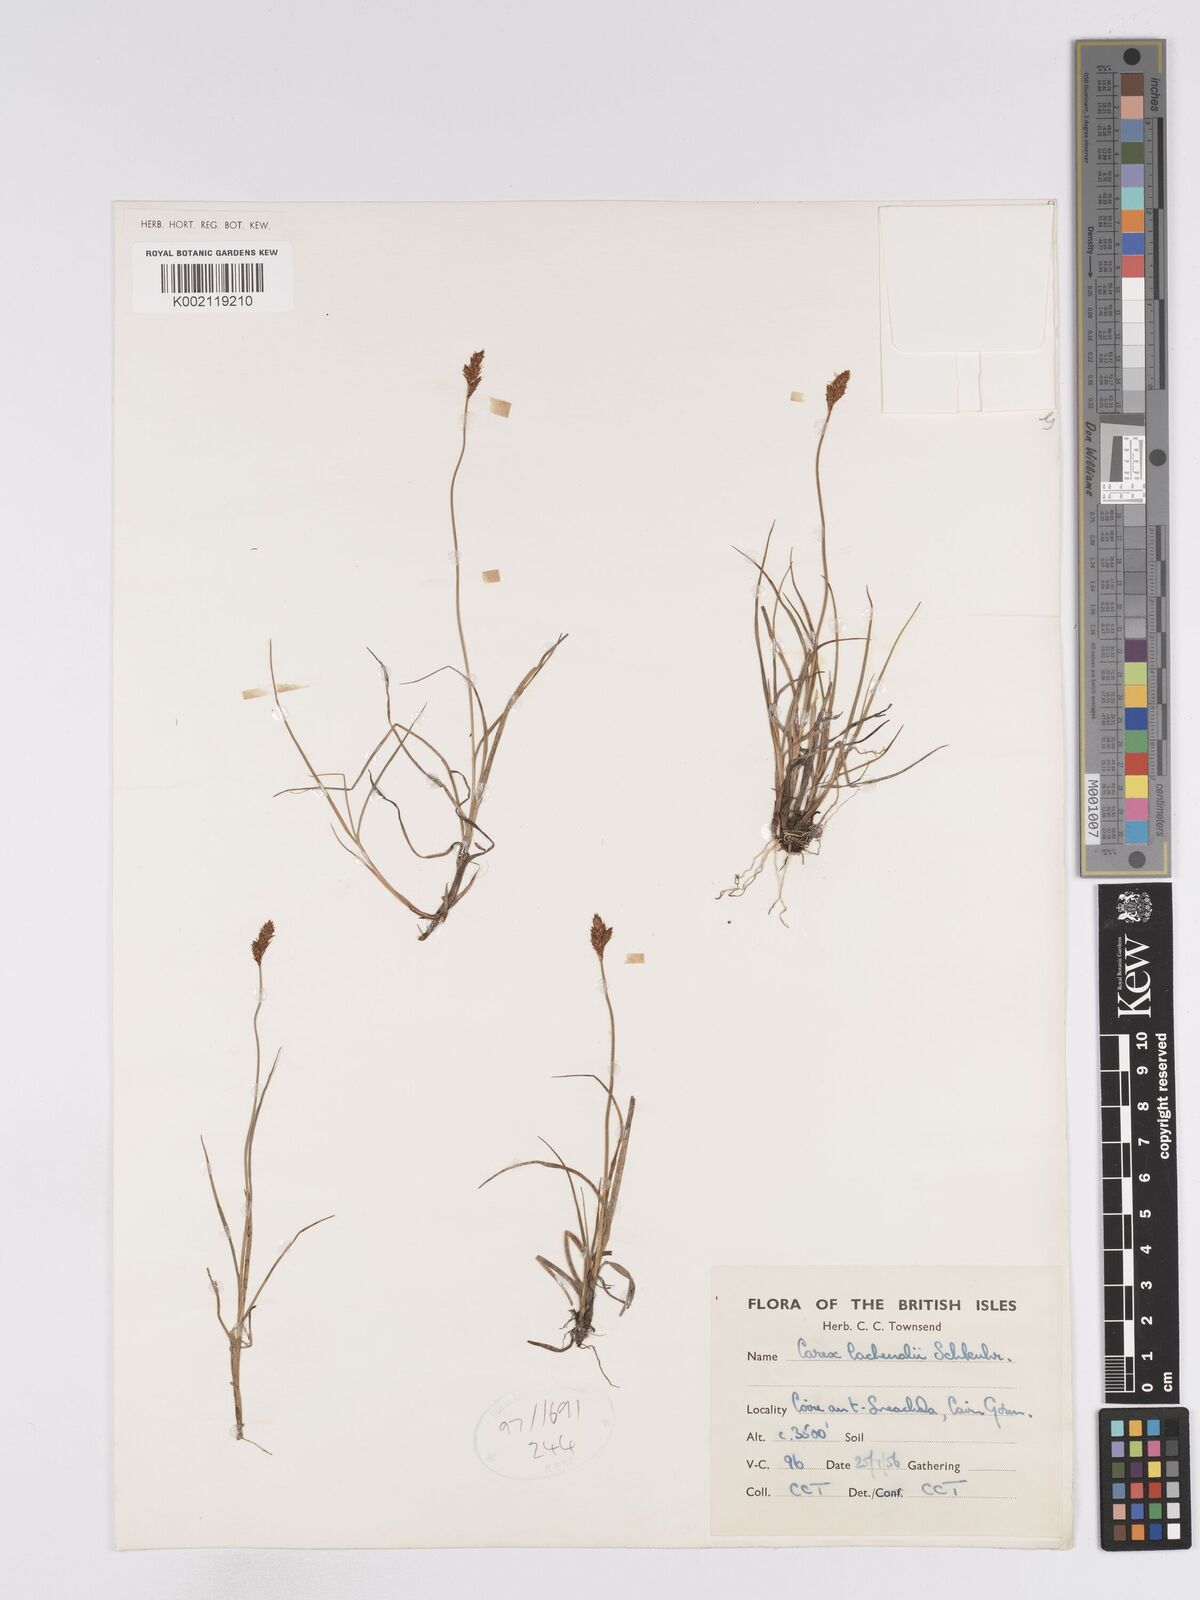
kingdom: Plantae
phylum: Tracheophyta
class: Liliopsida
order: Poales
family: Cyperaceae
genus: Carex
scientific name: Carex lachenalii
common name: Hare's-foot sedge
